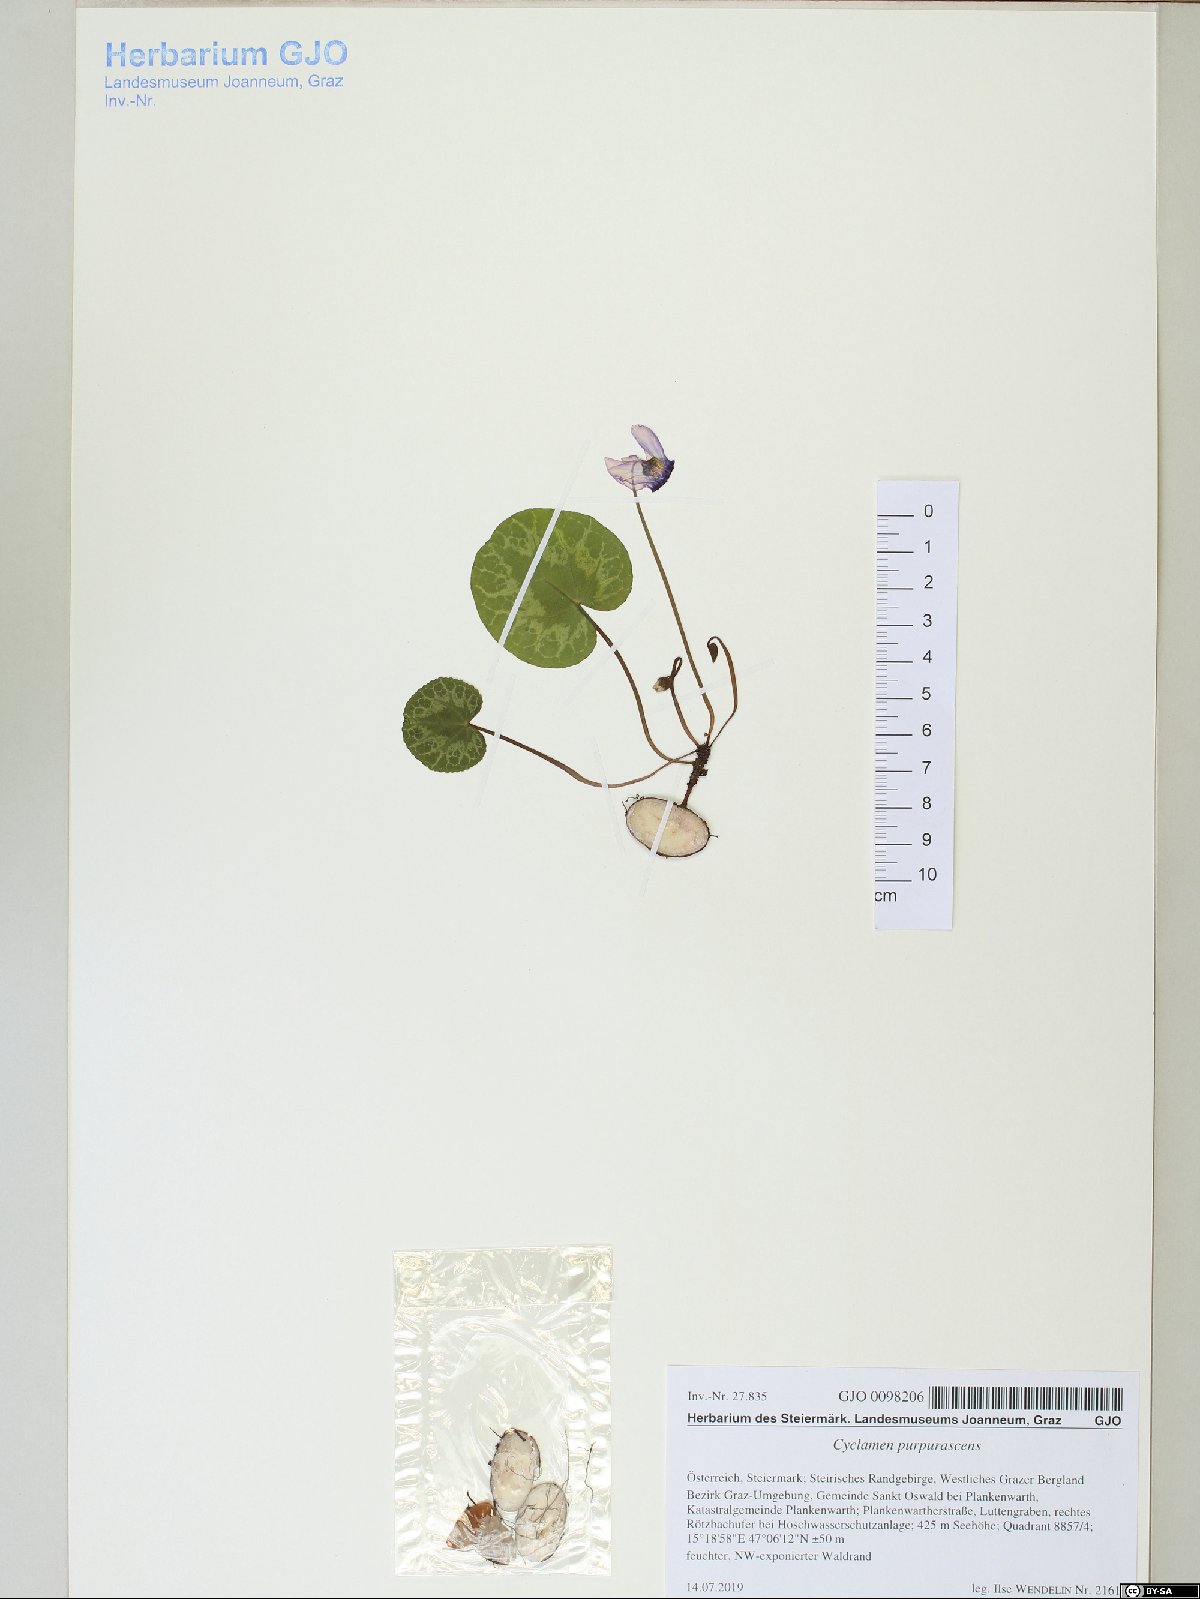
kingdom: Plantae
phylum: Tracheophyta
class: Magnoliopsida
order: Ericales
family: Primulaceae
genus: Cyclamen
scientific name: Cyclamen purpurascens
